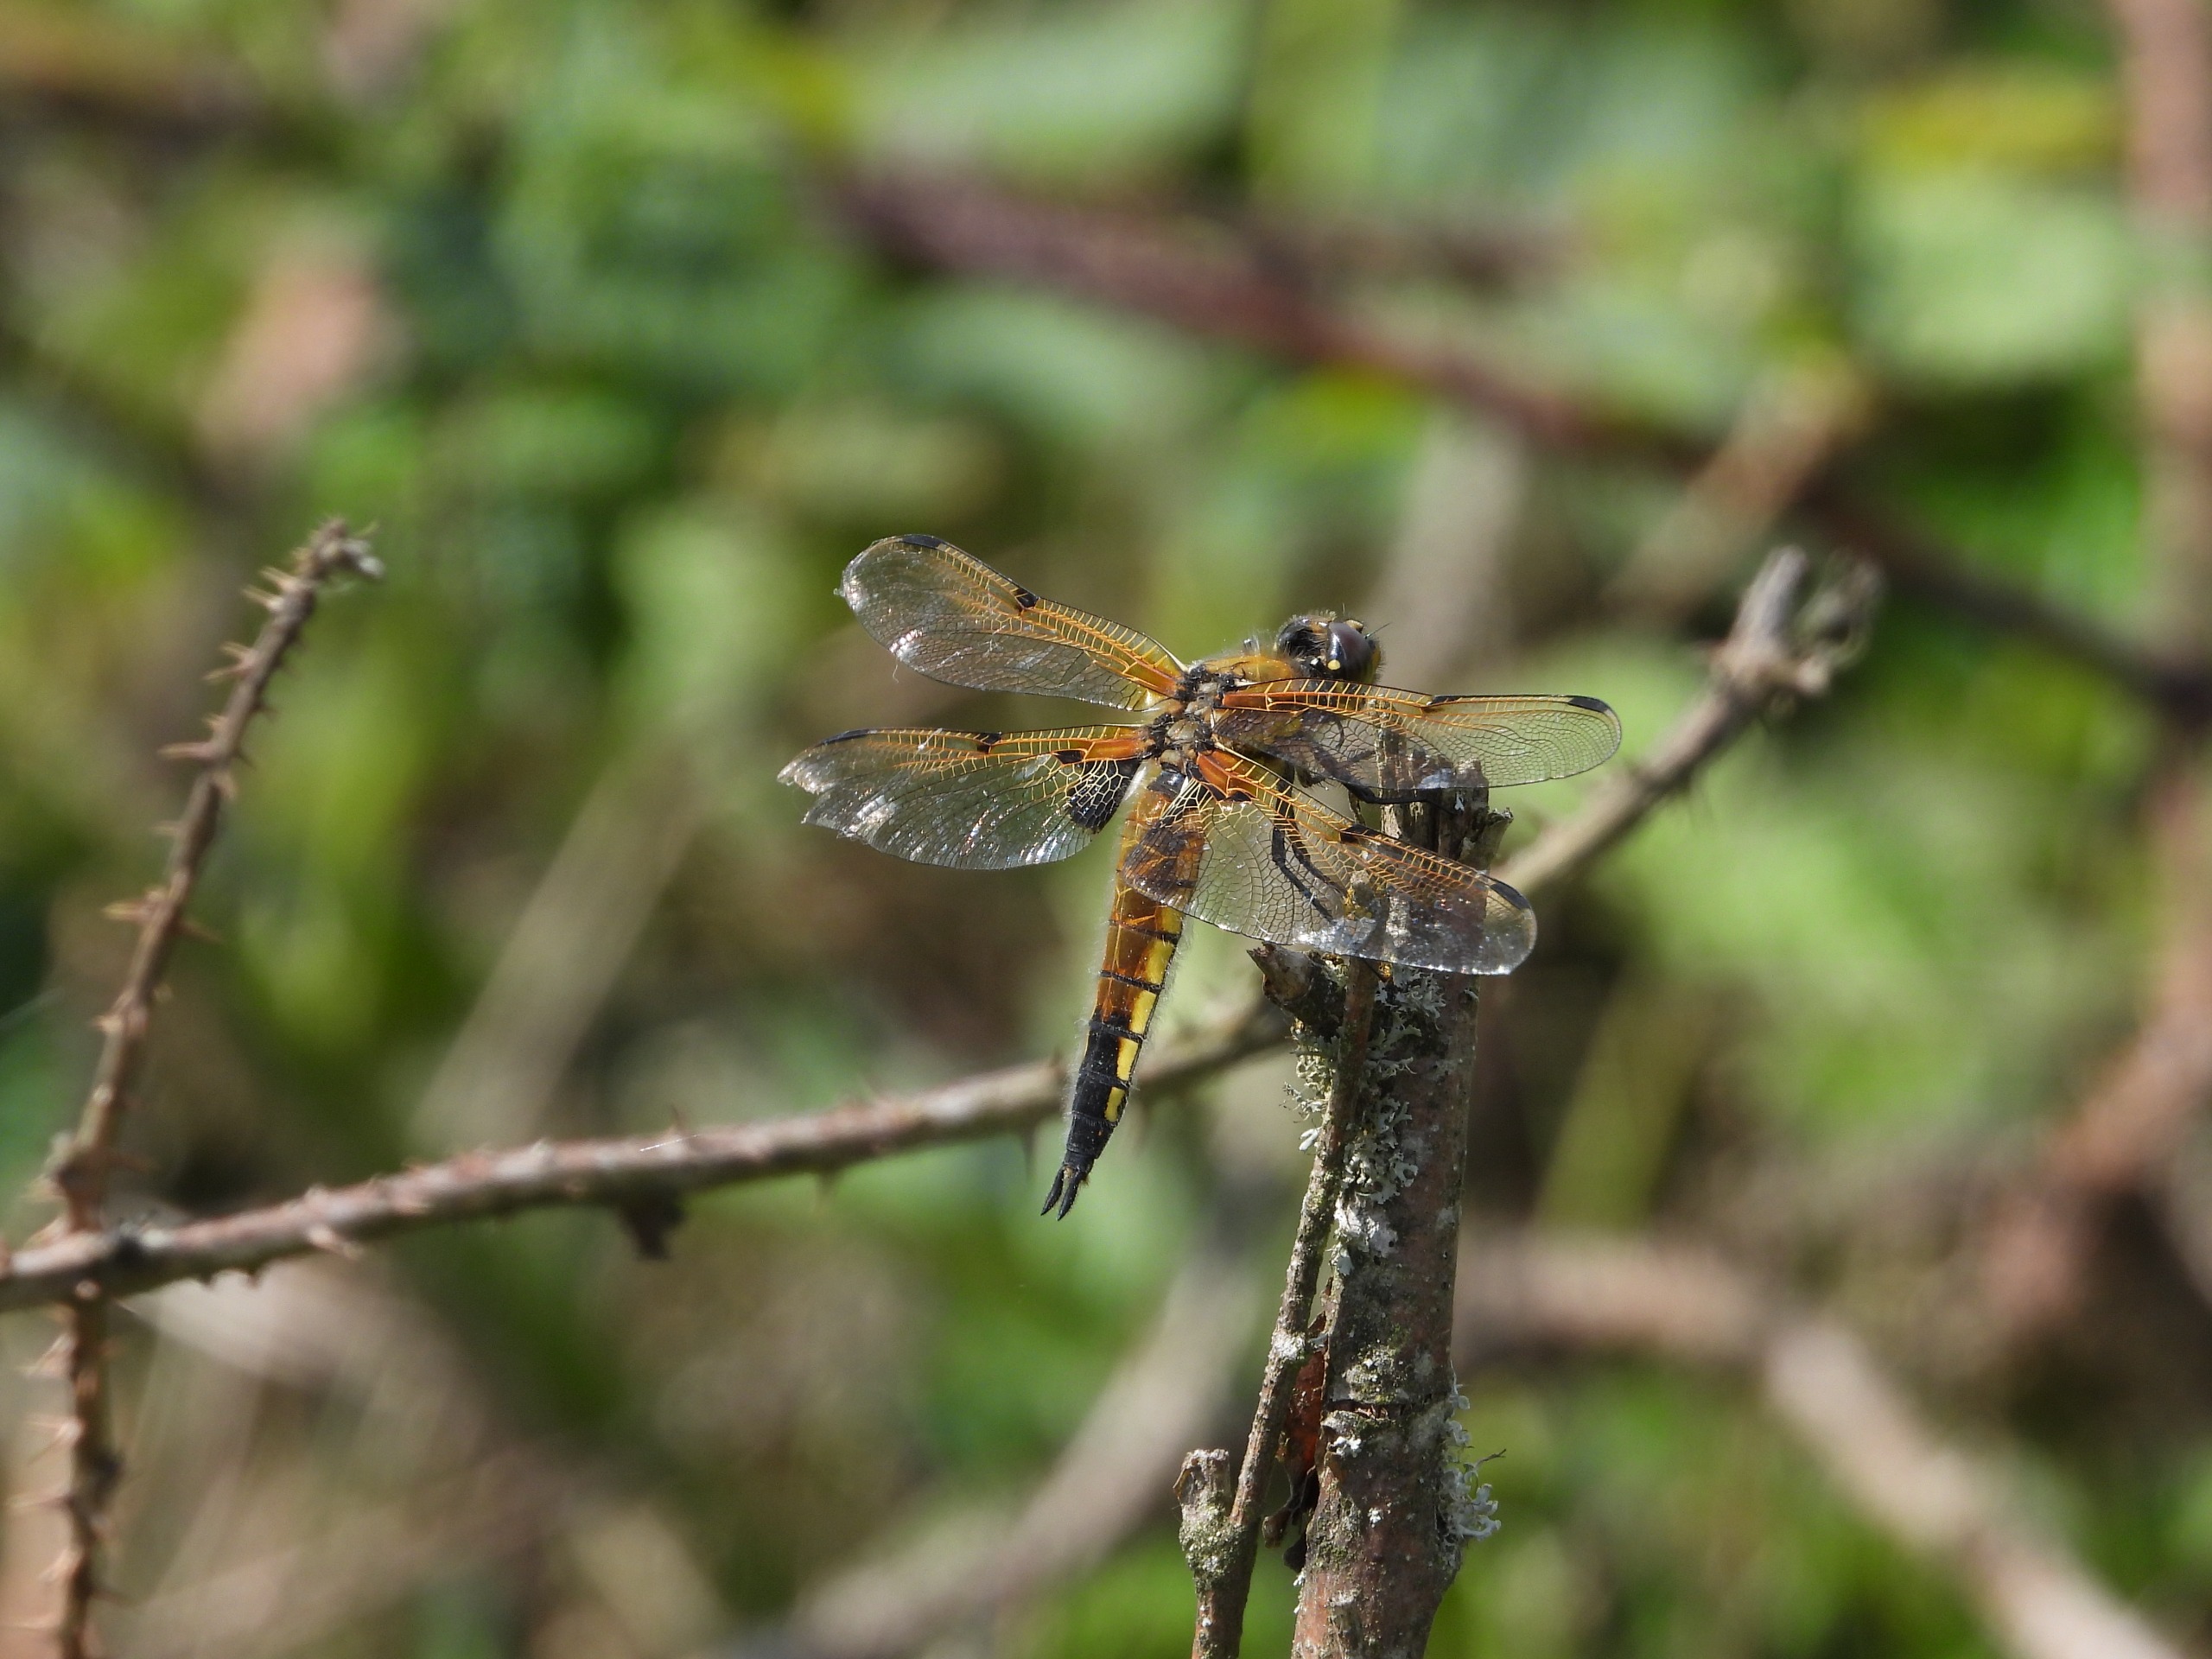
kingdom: Animalia
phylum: Arthropoda
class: Insecta
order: Odonata
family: Libellulidae
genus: Libellula
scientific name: Libellula quadrimaculata
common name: Fireplettet libel
